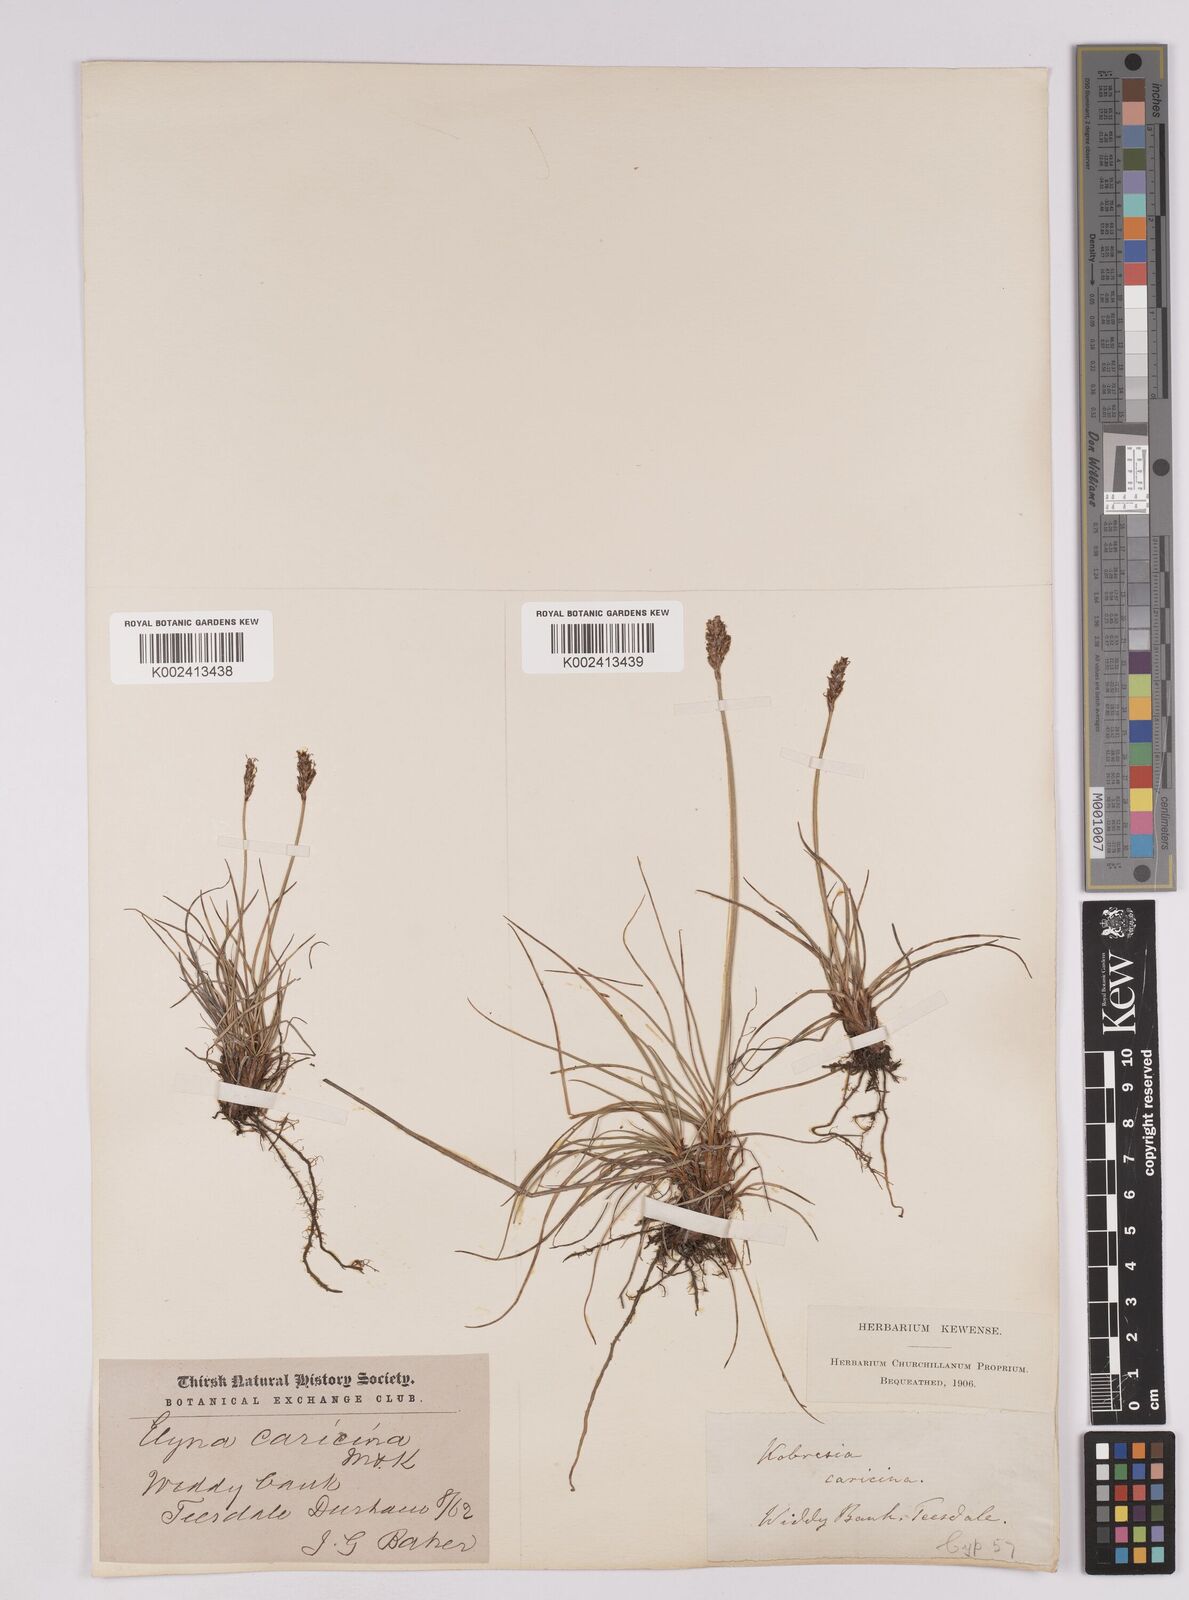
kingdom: Plantae
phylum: Tracheophyta
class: Liliopsida
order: Poales
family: Cyperaceae
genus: Carex
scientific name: Carex simpliciuscula
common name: Simple bog sedge
